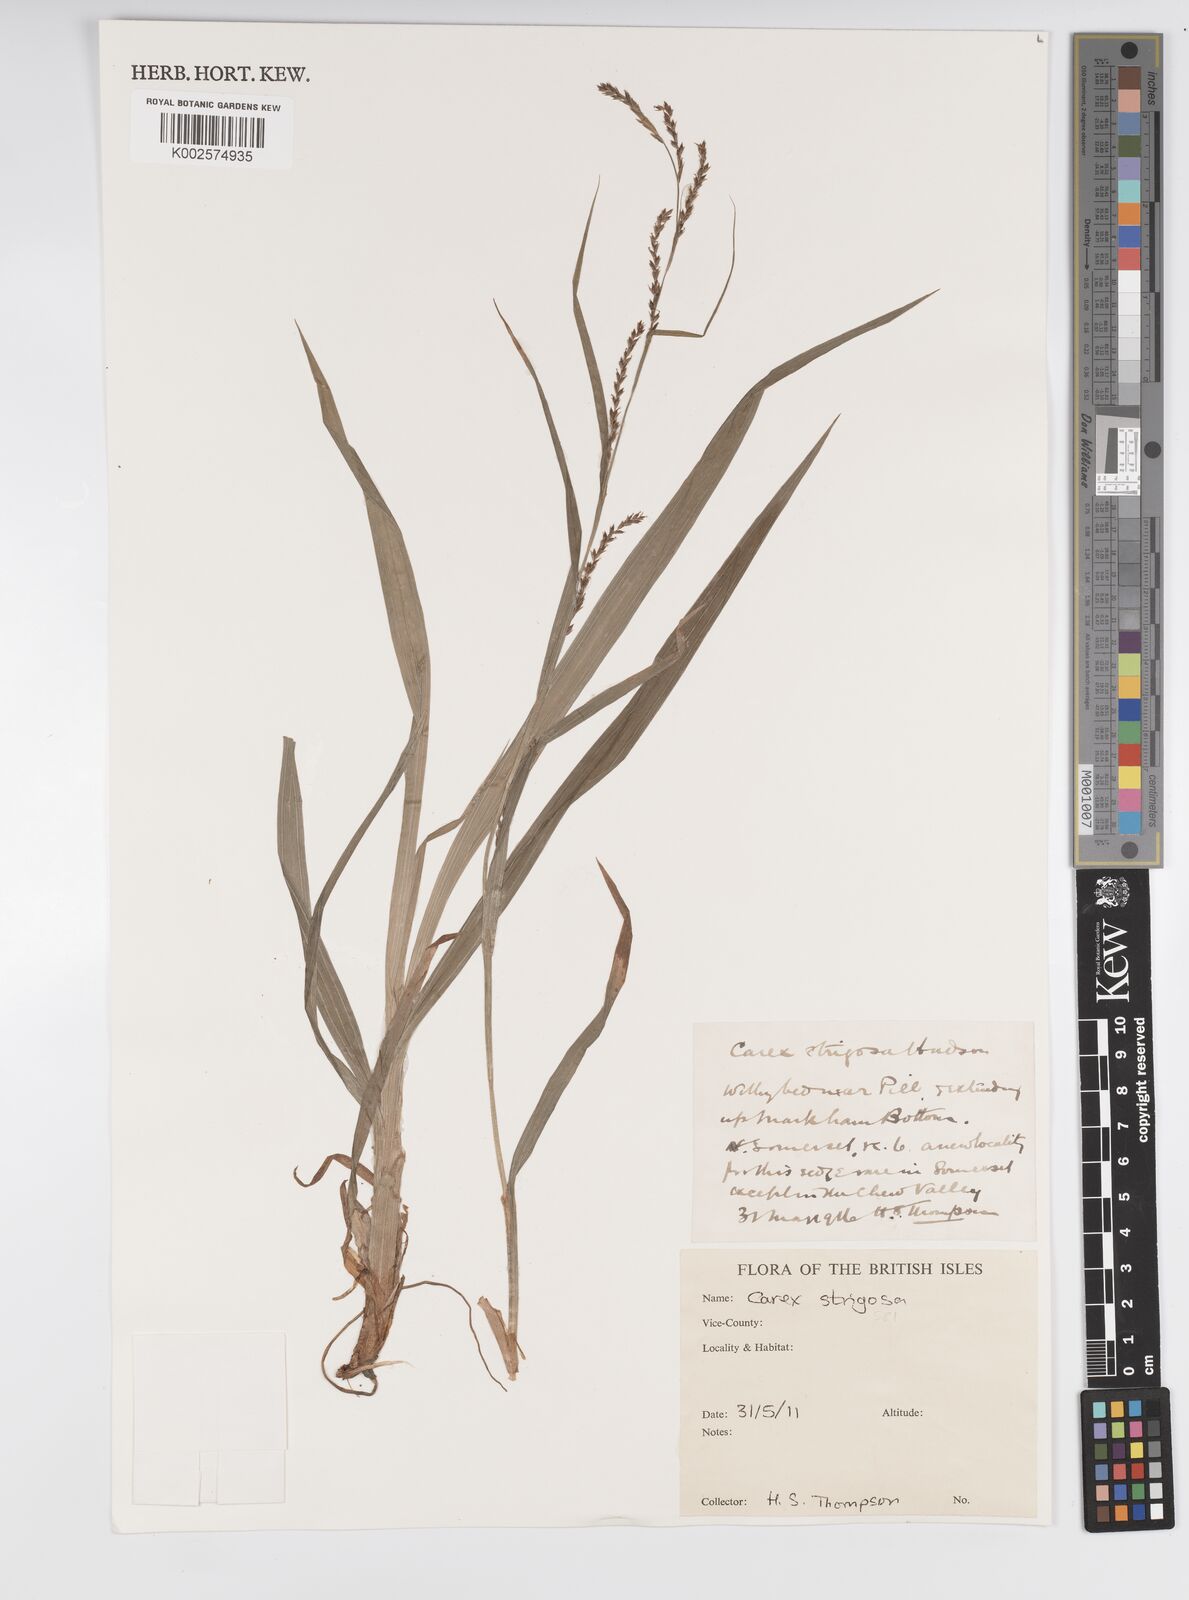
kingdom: Plantae
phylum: Tracheophyta
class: Liliopsida
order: Poales
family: Cyperaceae
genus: Carex
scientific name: Carex strigosa
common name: Thin-spiked wood-sedge
